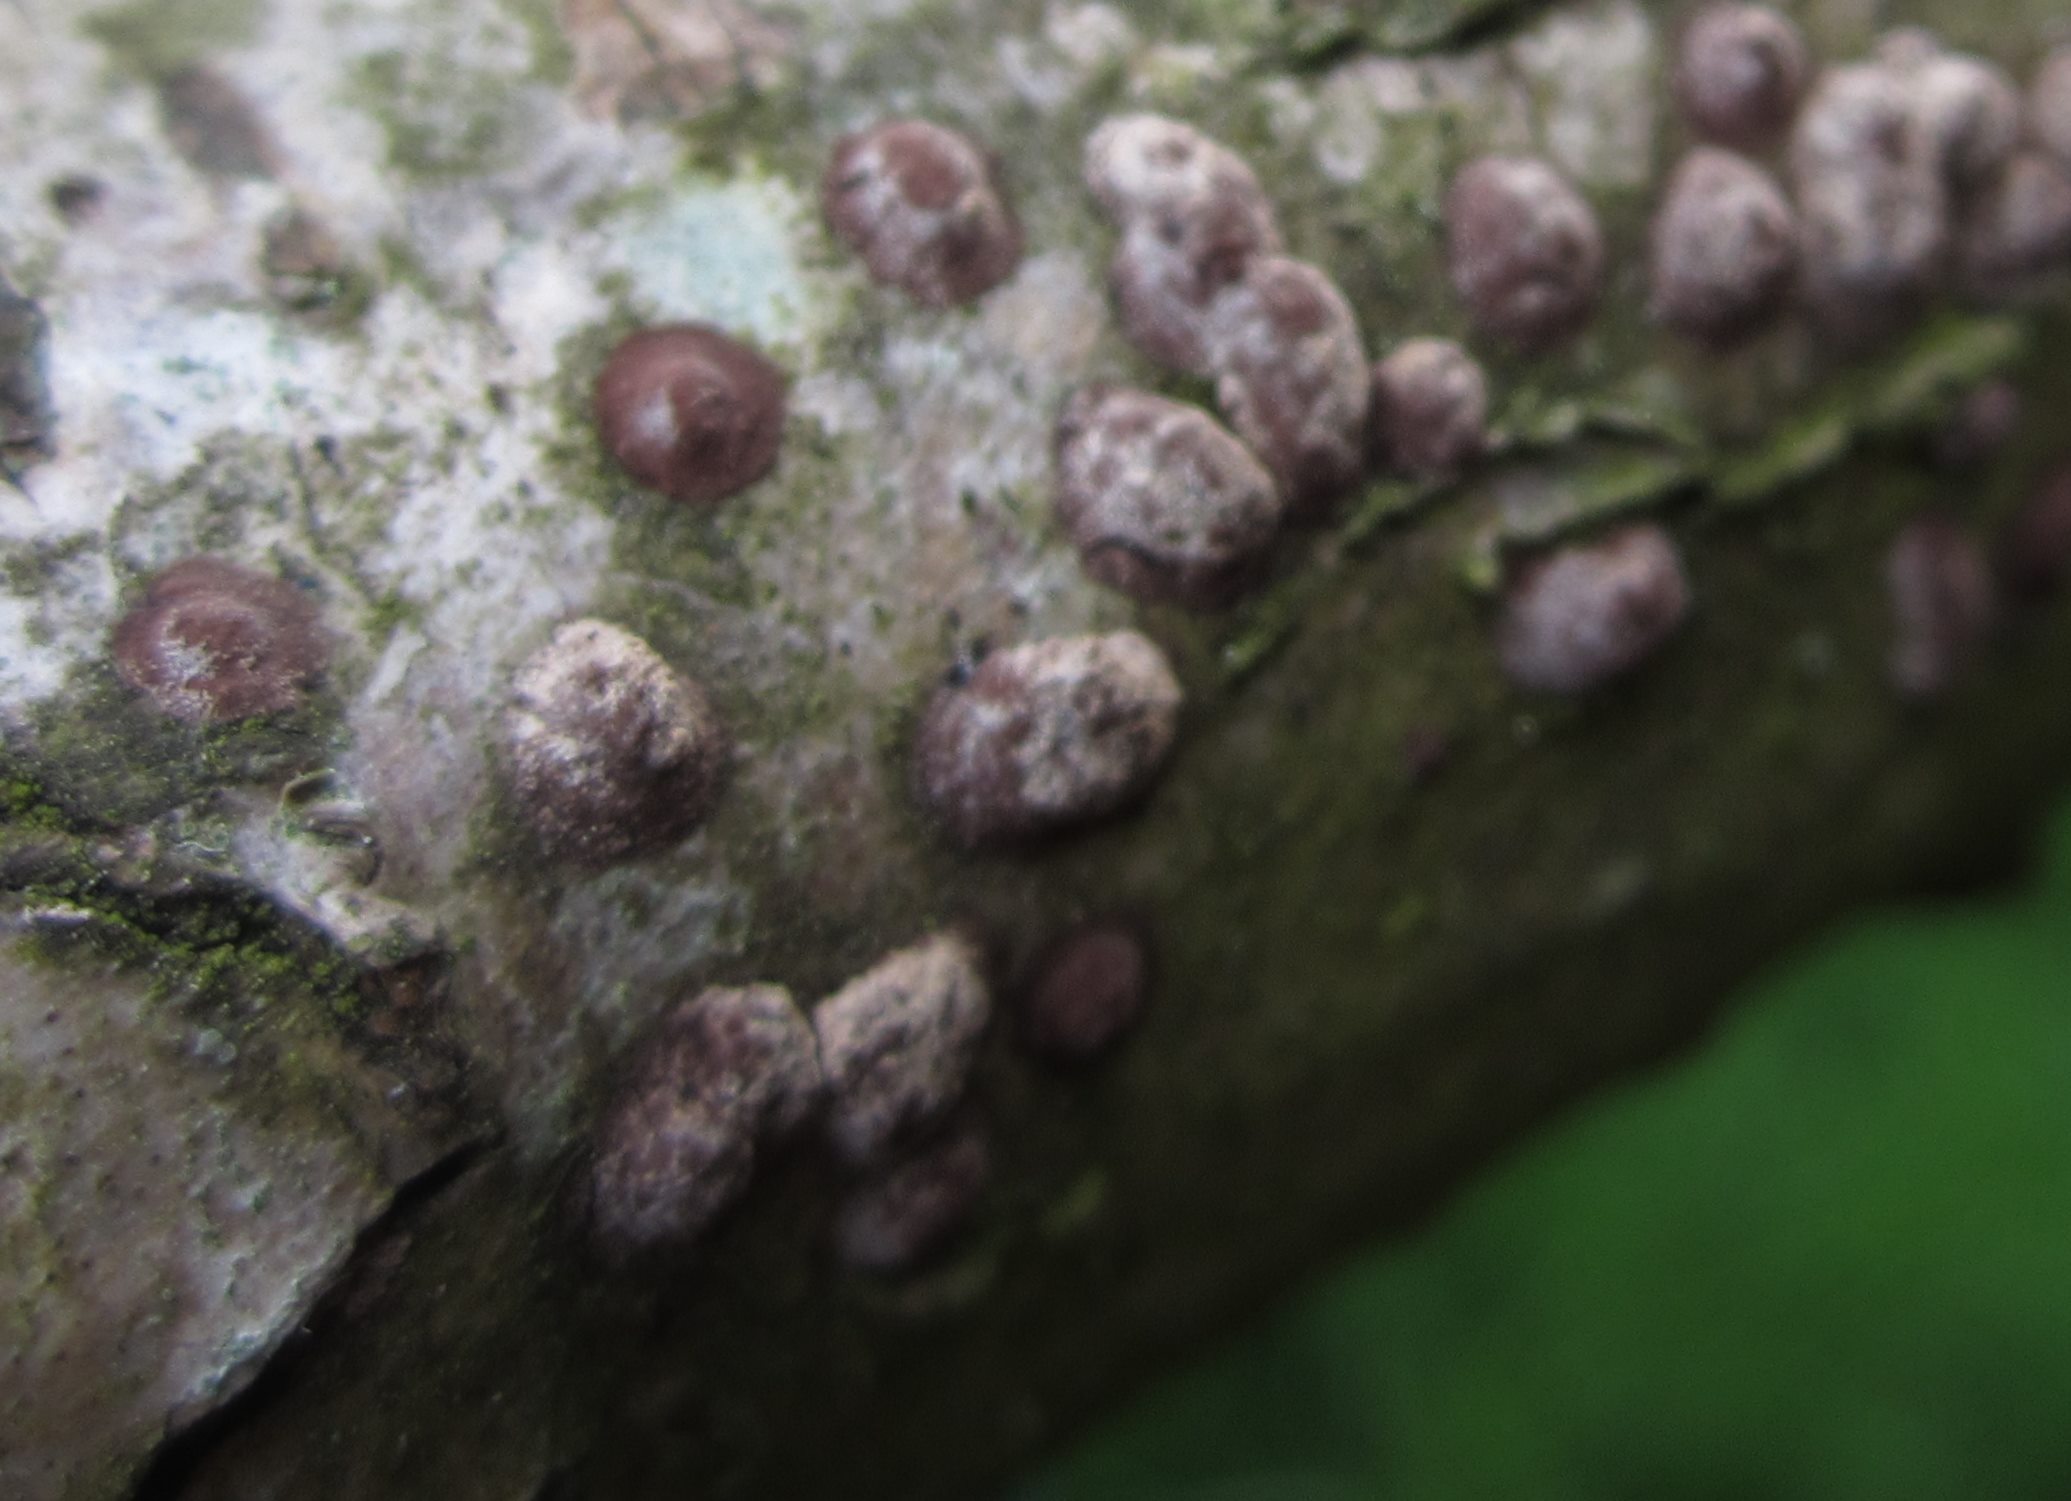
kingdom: Fungi
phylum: Ascomycota
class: Sordariomycetes
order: Xylariales
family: Hypoxylaceae
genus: Hypoxylon
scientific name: Hypoxylon fuscum
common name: kegleformet kulbær
